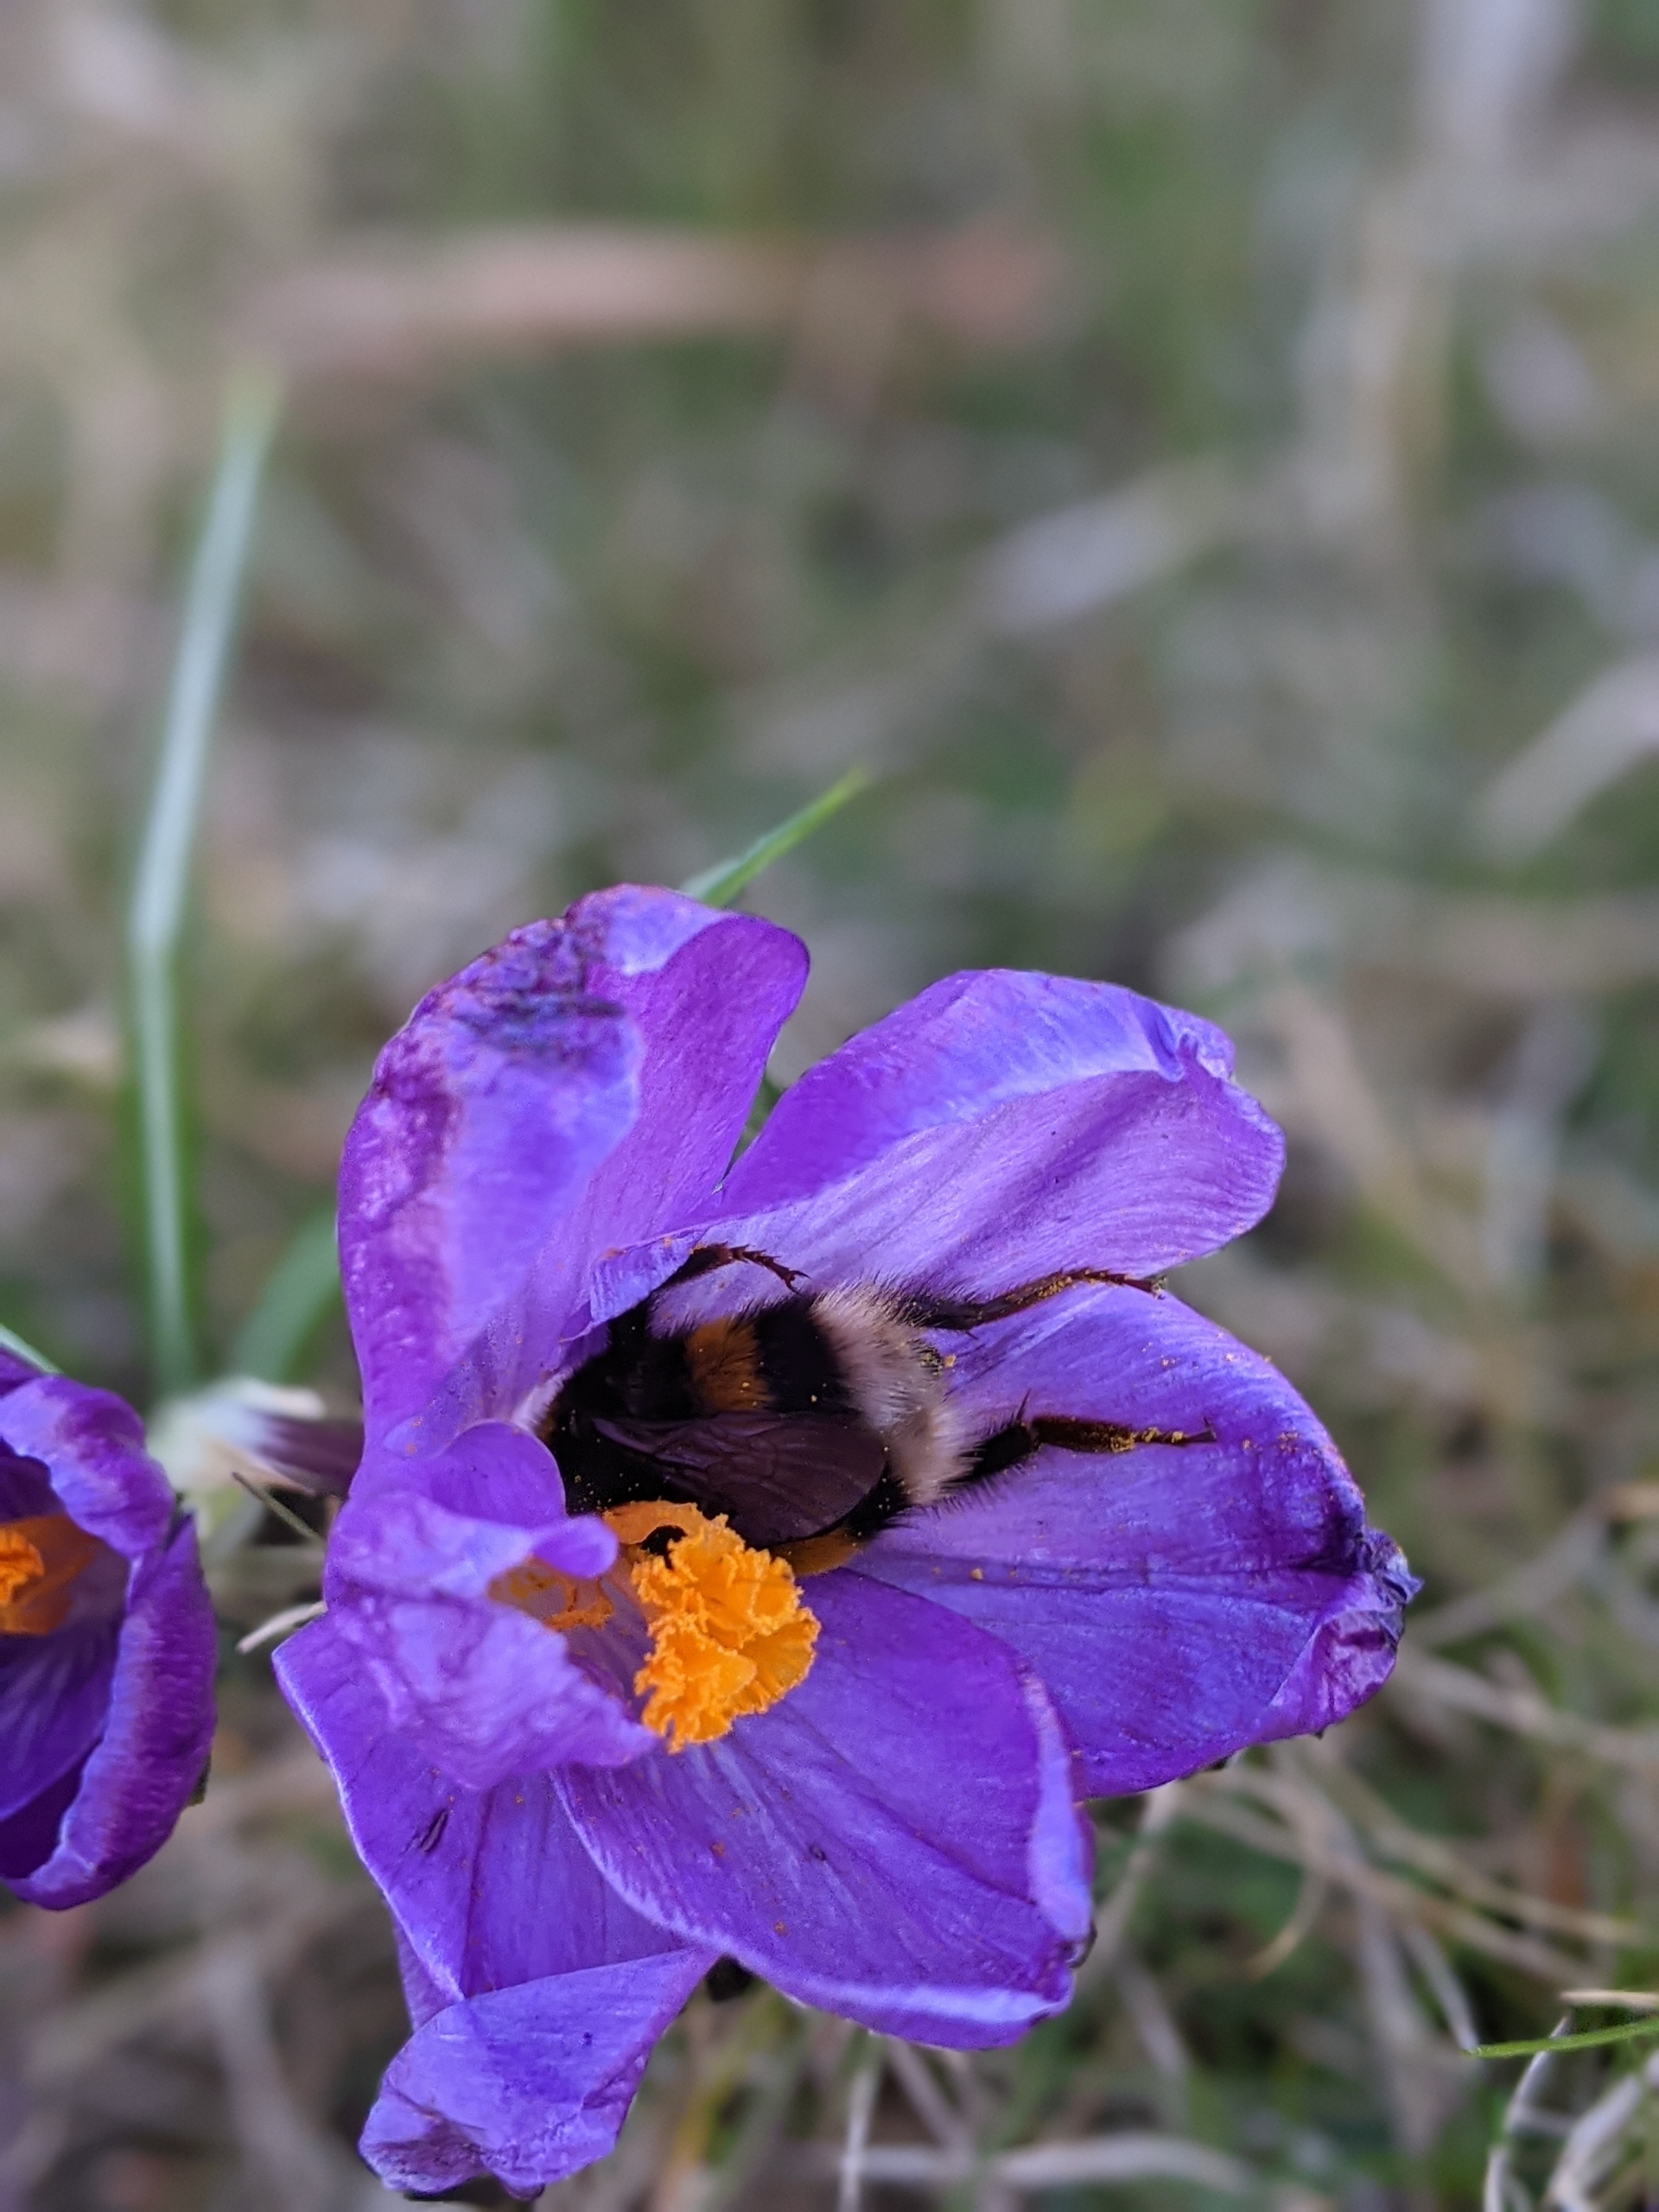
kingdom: Animalia
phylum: Arthropoda
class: Insecta
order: Hymenoptera
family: Apidae
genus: Bombus
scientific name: Bombus
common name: Humlebier
